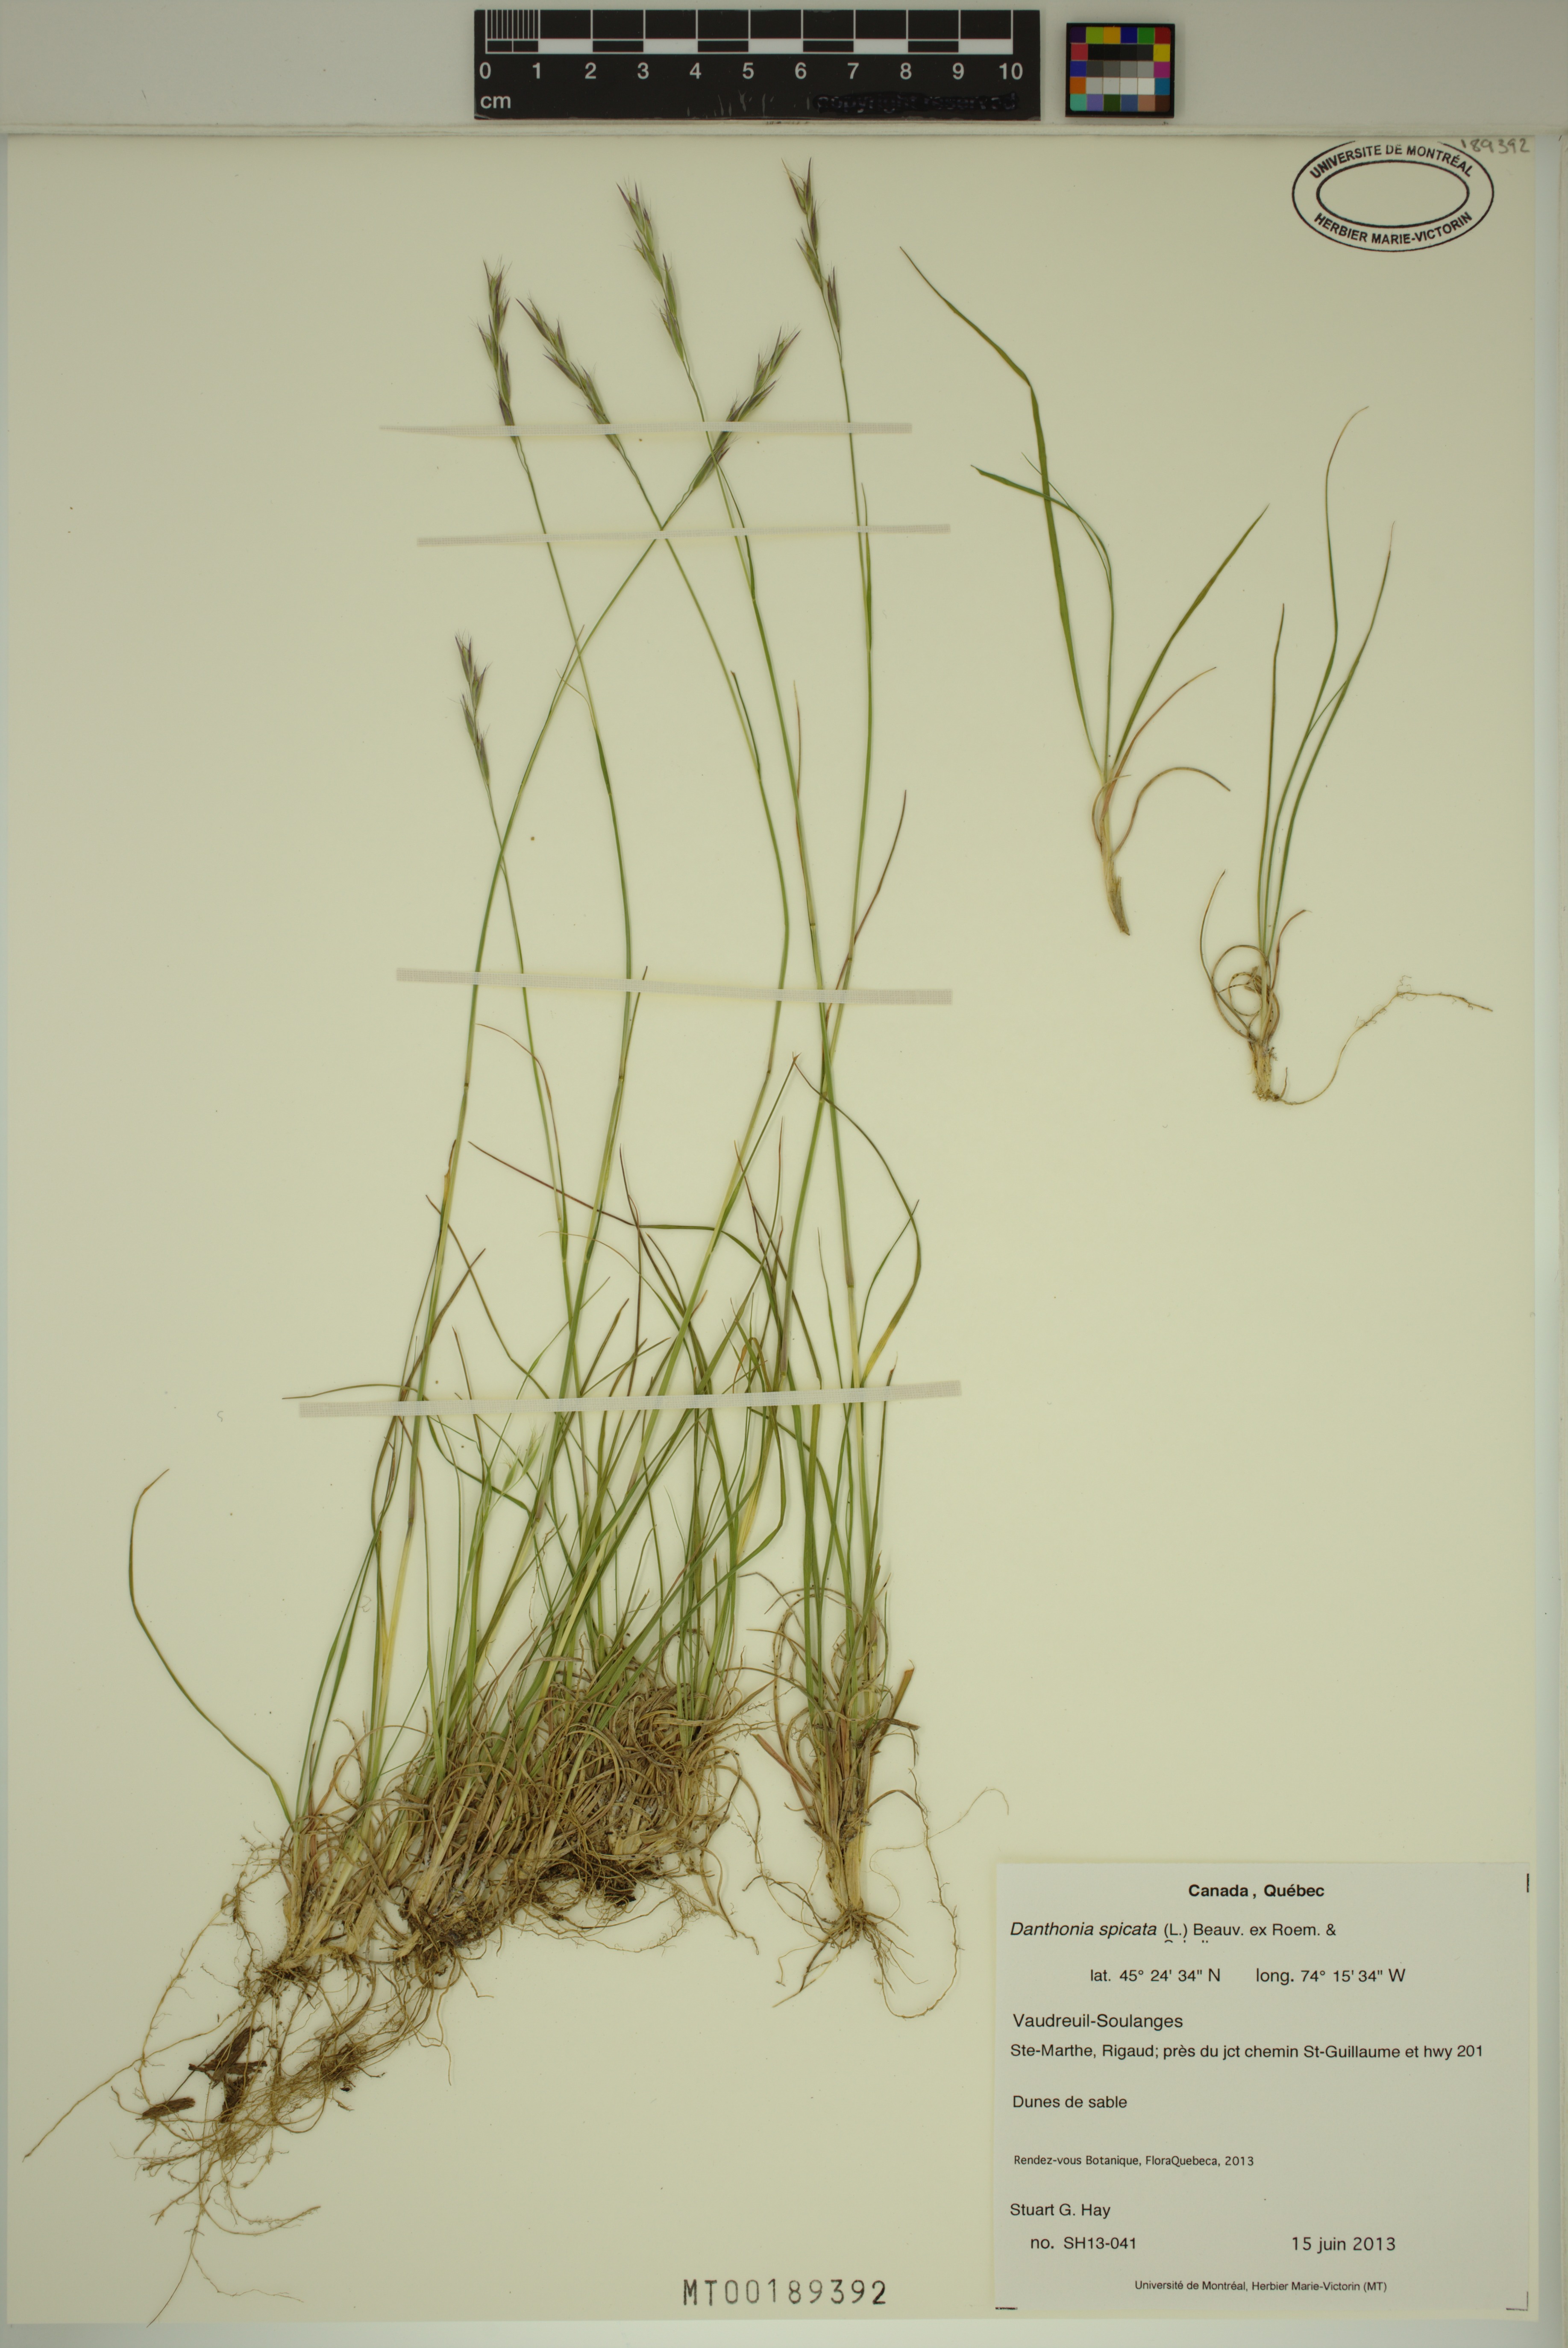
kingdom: Plantae
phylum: Tracheophyta
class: Liliopsida
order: Poales
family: Poaceae
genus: Danthonia
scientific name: Danthonia spicata
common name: Common wild oatgrass
